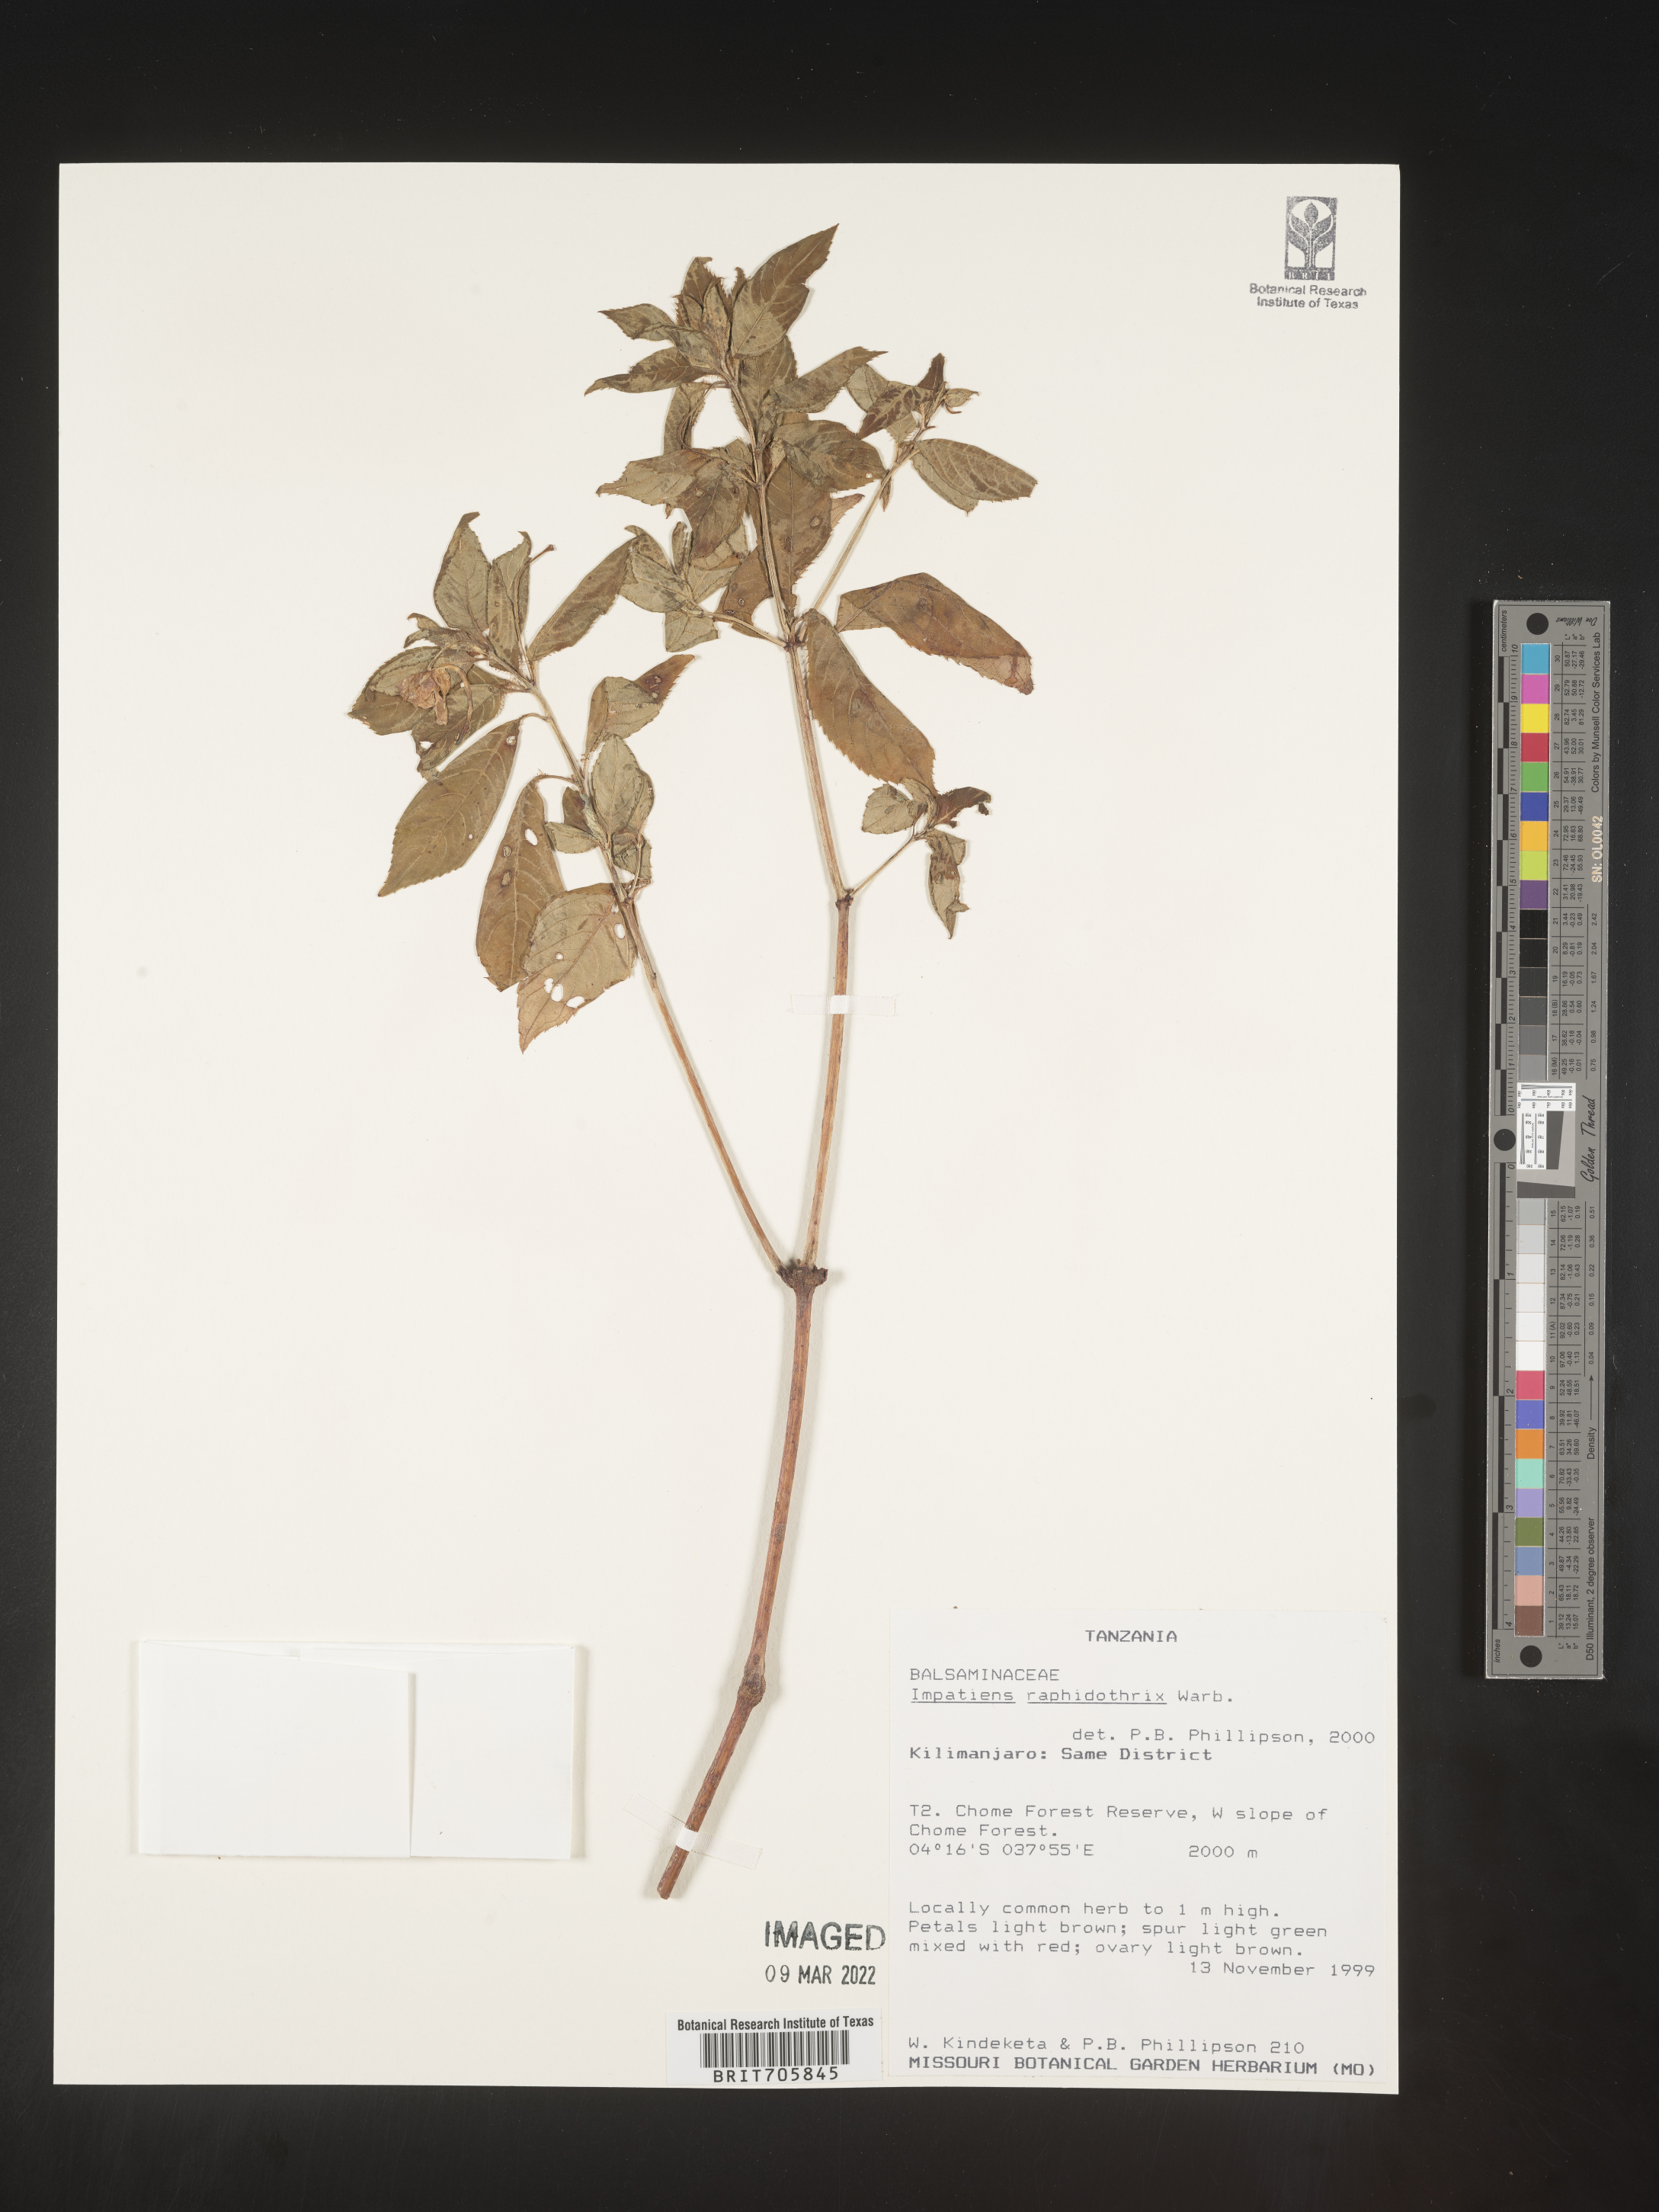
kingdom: Plantae
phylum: Tracheophyta
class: Magnoliopsida
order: Ericales
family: Balsaminaceae
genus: Impatiens
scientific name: Impatiens
